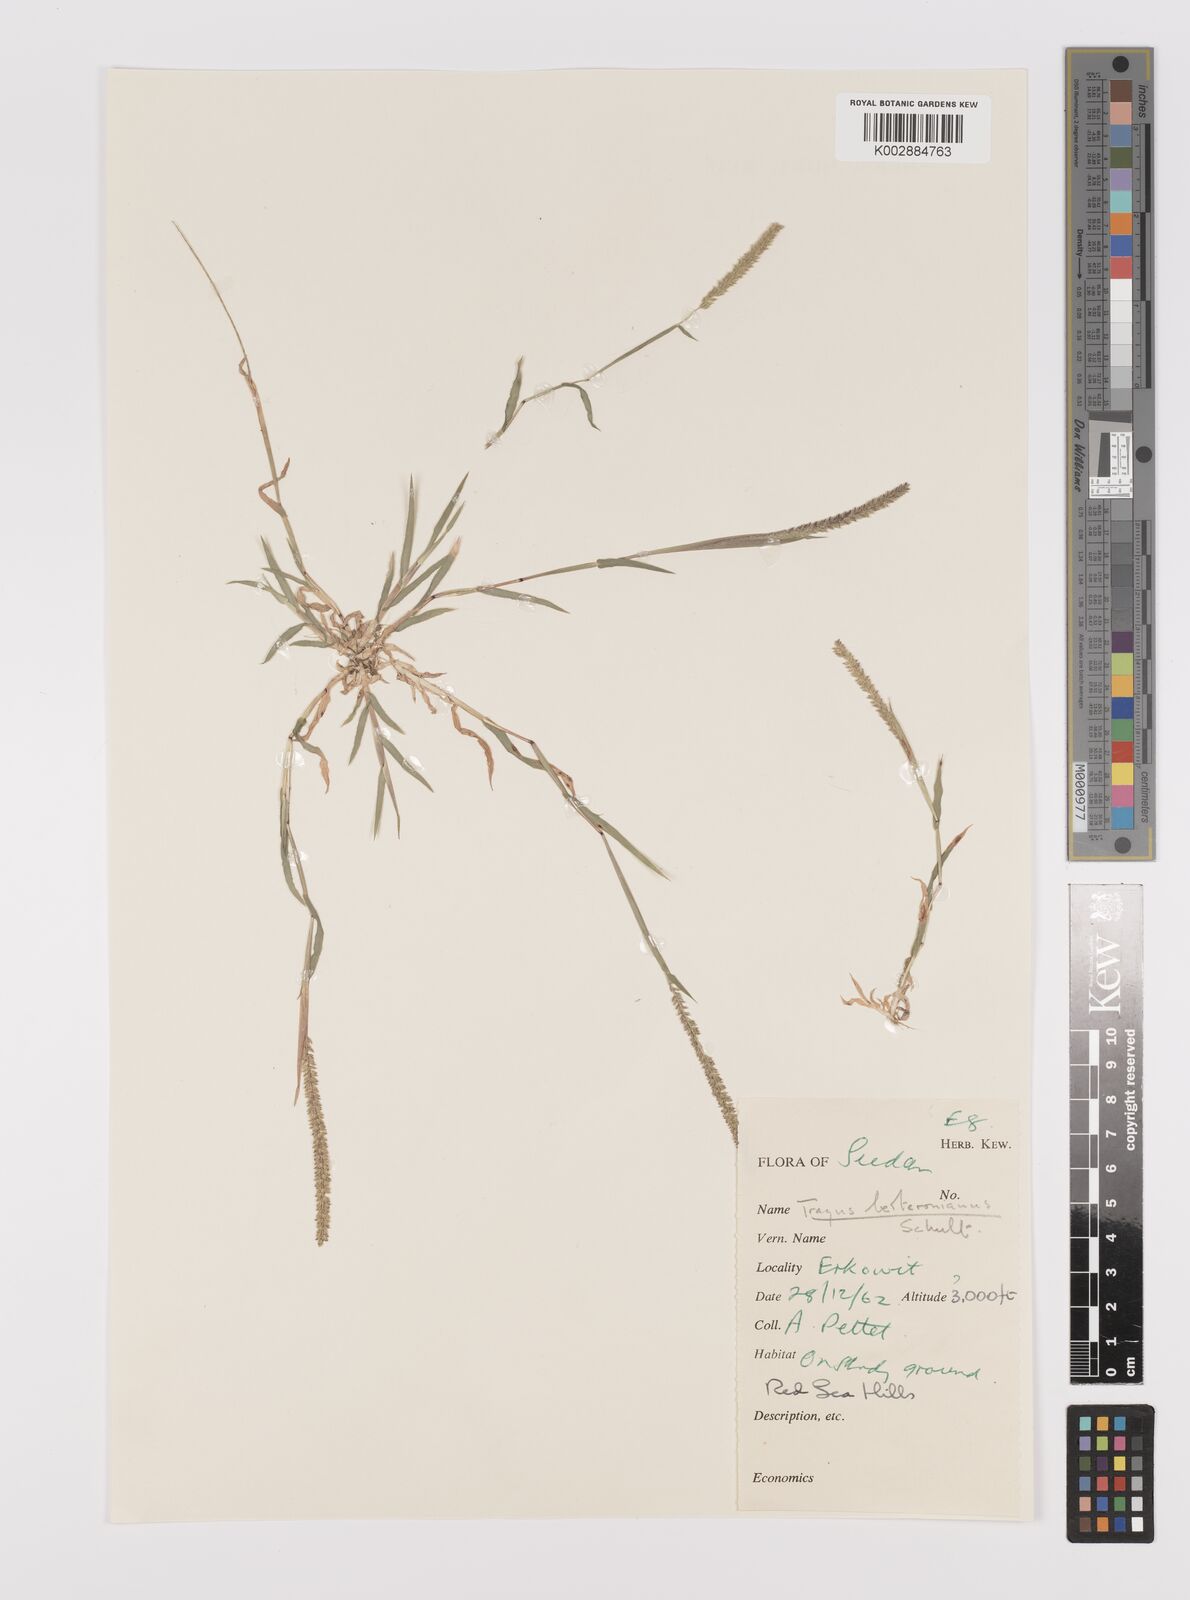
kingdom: Plantae
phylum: Tracheophyta
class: Liliopsida
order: Poales
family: Poaceae
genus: Tragus
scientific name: Tragus berteronianus
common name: African bur-grass
